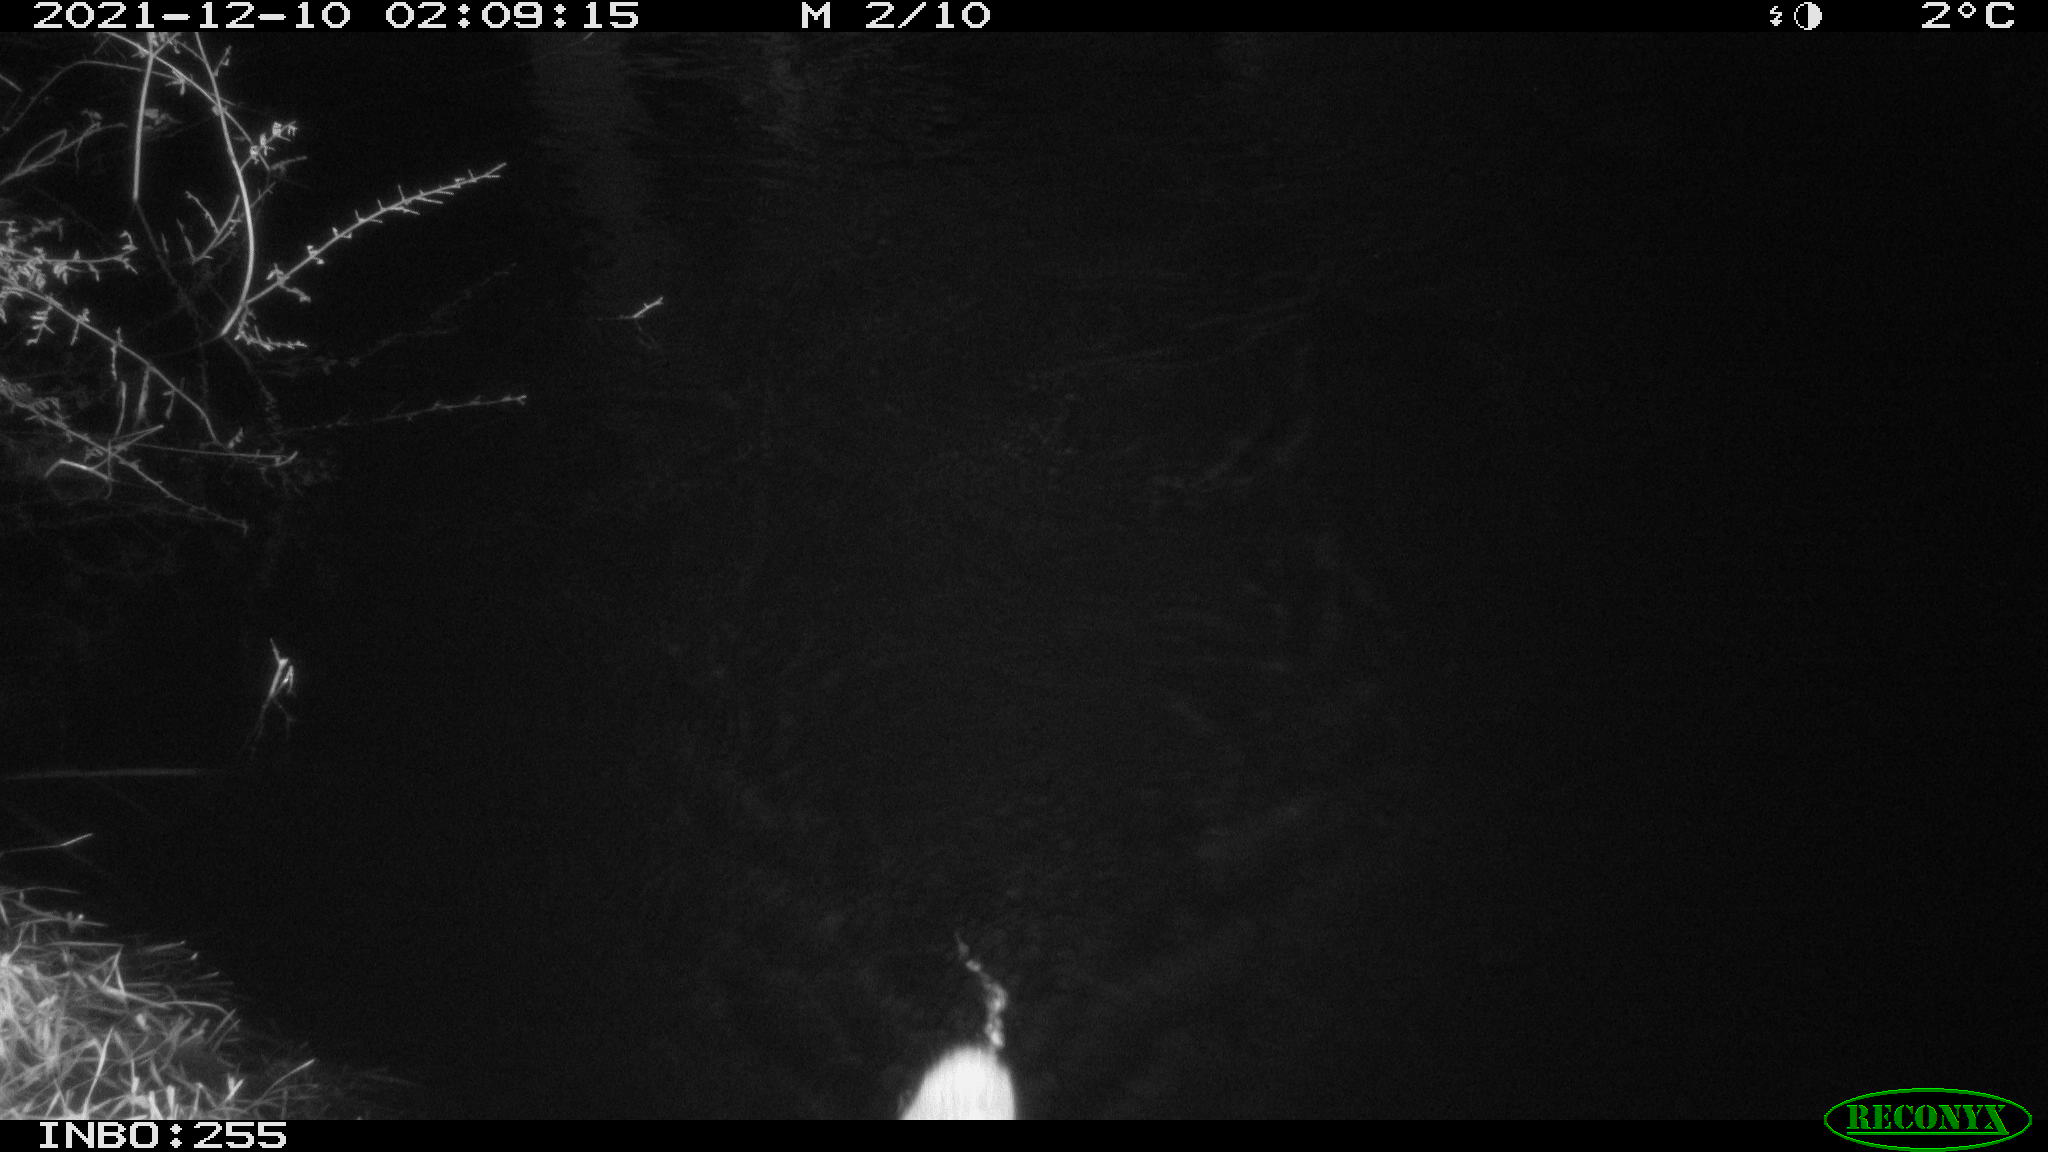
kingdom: Animalia
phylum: Chordata
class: Mammalia
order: Rodentia
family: Muridae
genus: Rattus
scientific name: Rattus norvegicus
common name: Brown rat
